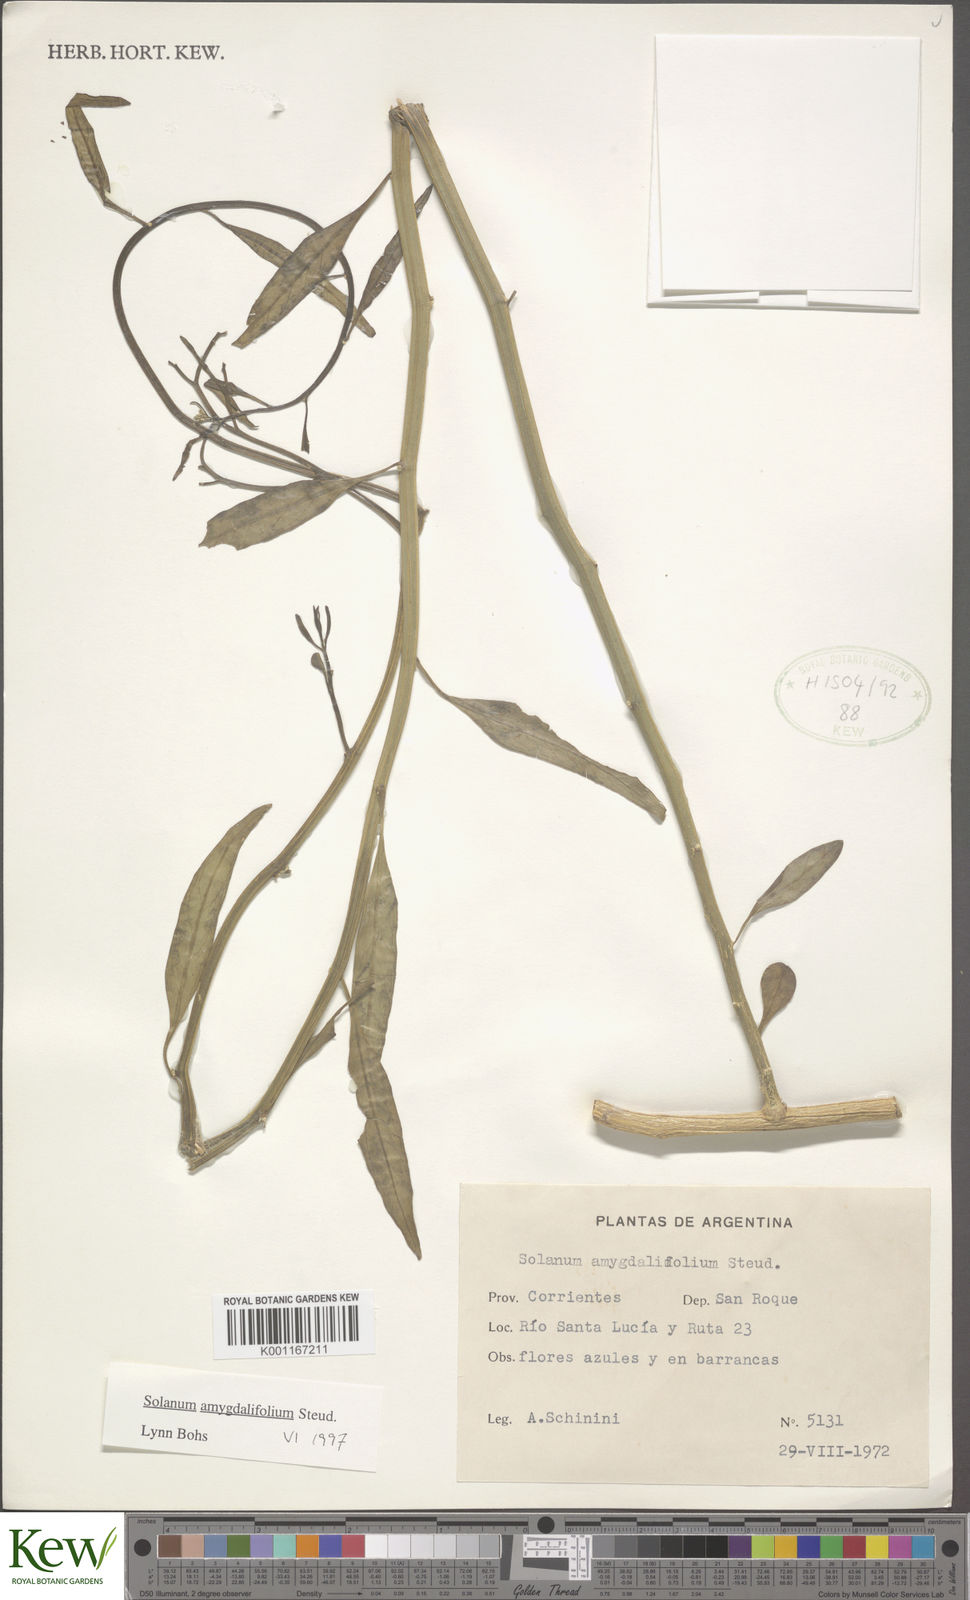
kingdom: Plantae
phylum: Tracheophyta
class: Magnoliopsida
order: Solanales
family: Solanaceae
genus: Solanum
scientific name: Solanum amygdalifolium
